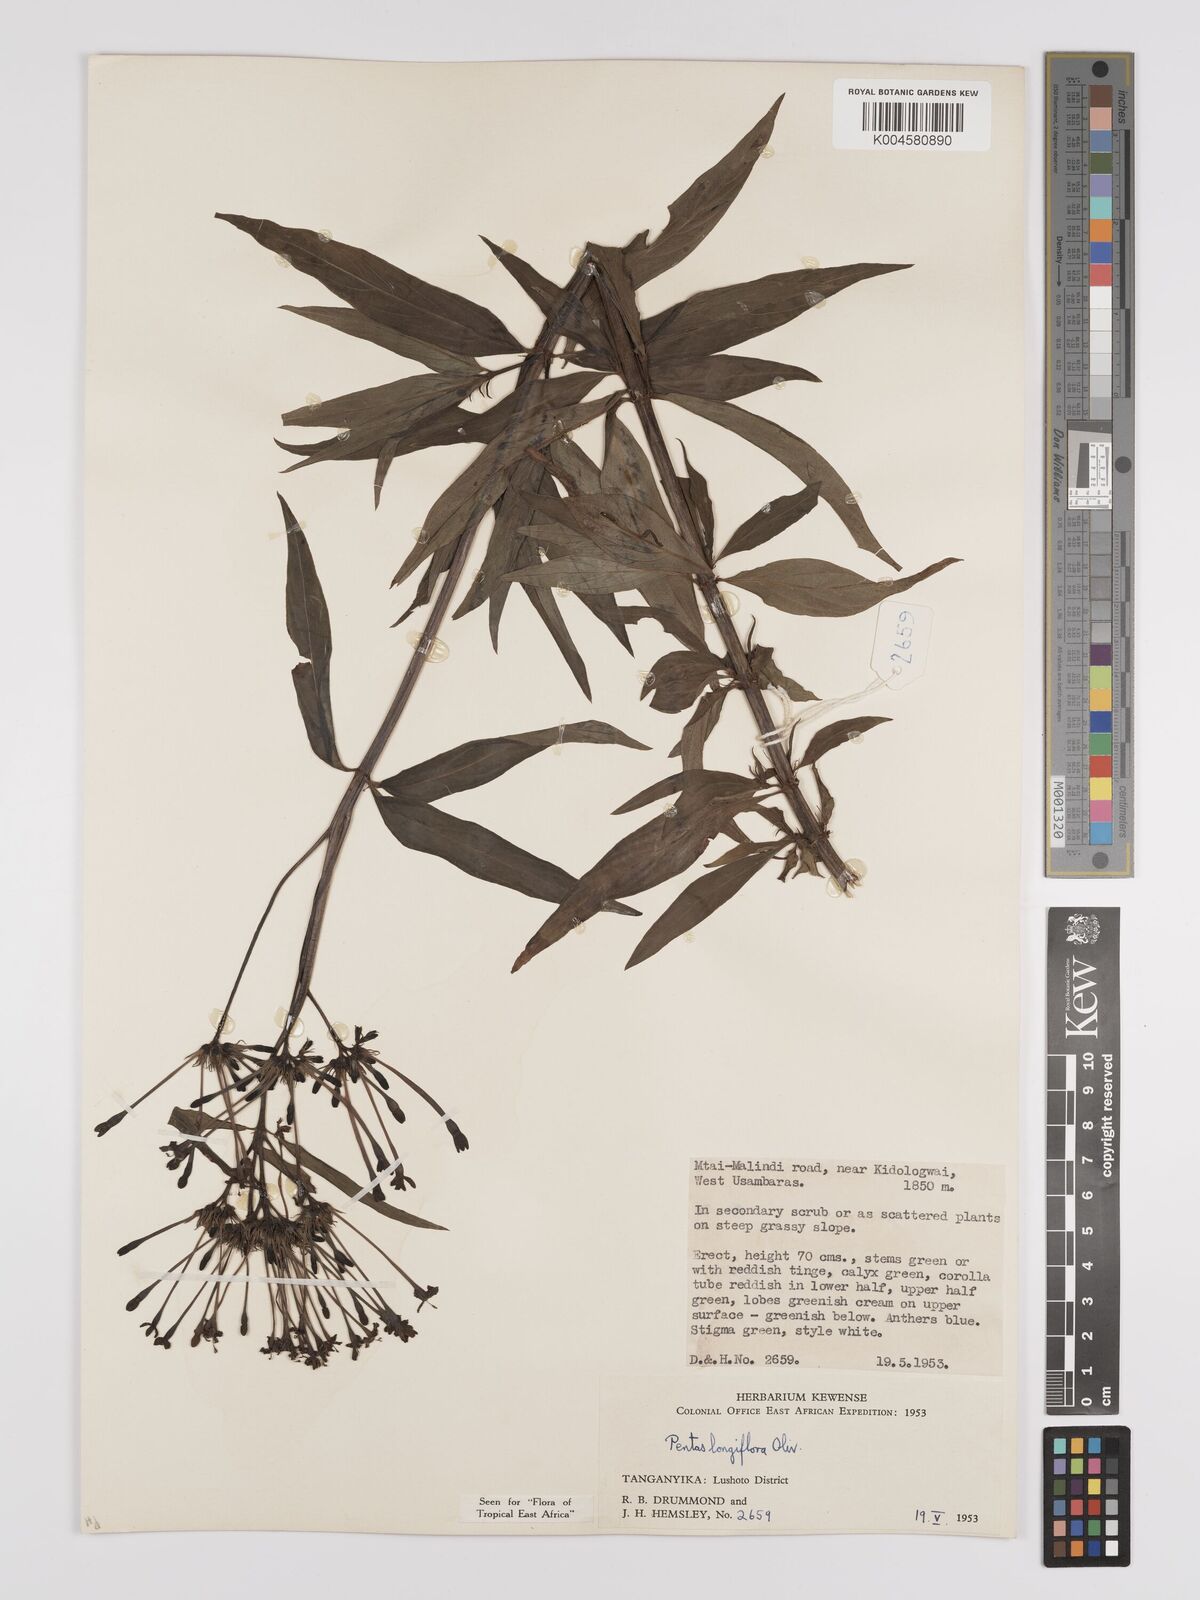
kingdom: Plantae
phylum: Tracheophyta
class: Magnoliopsida
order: Gentianales
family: Rubiaceae
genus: Dolichopentas
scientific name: Dolichopentas longiflora
